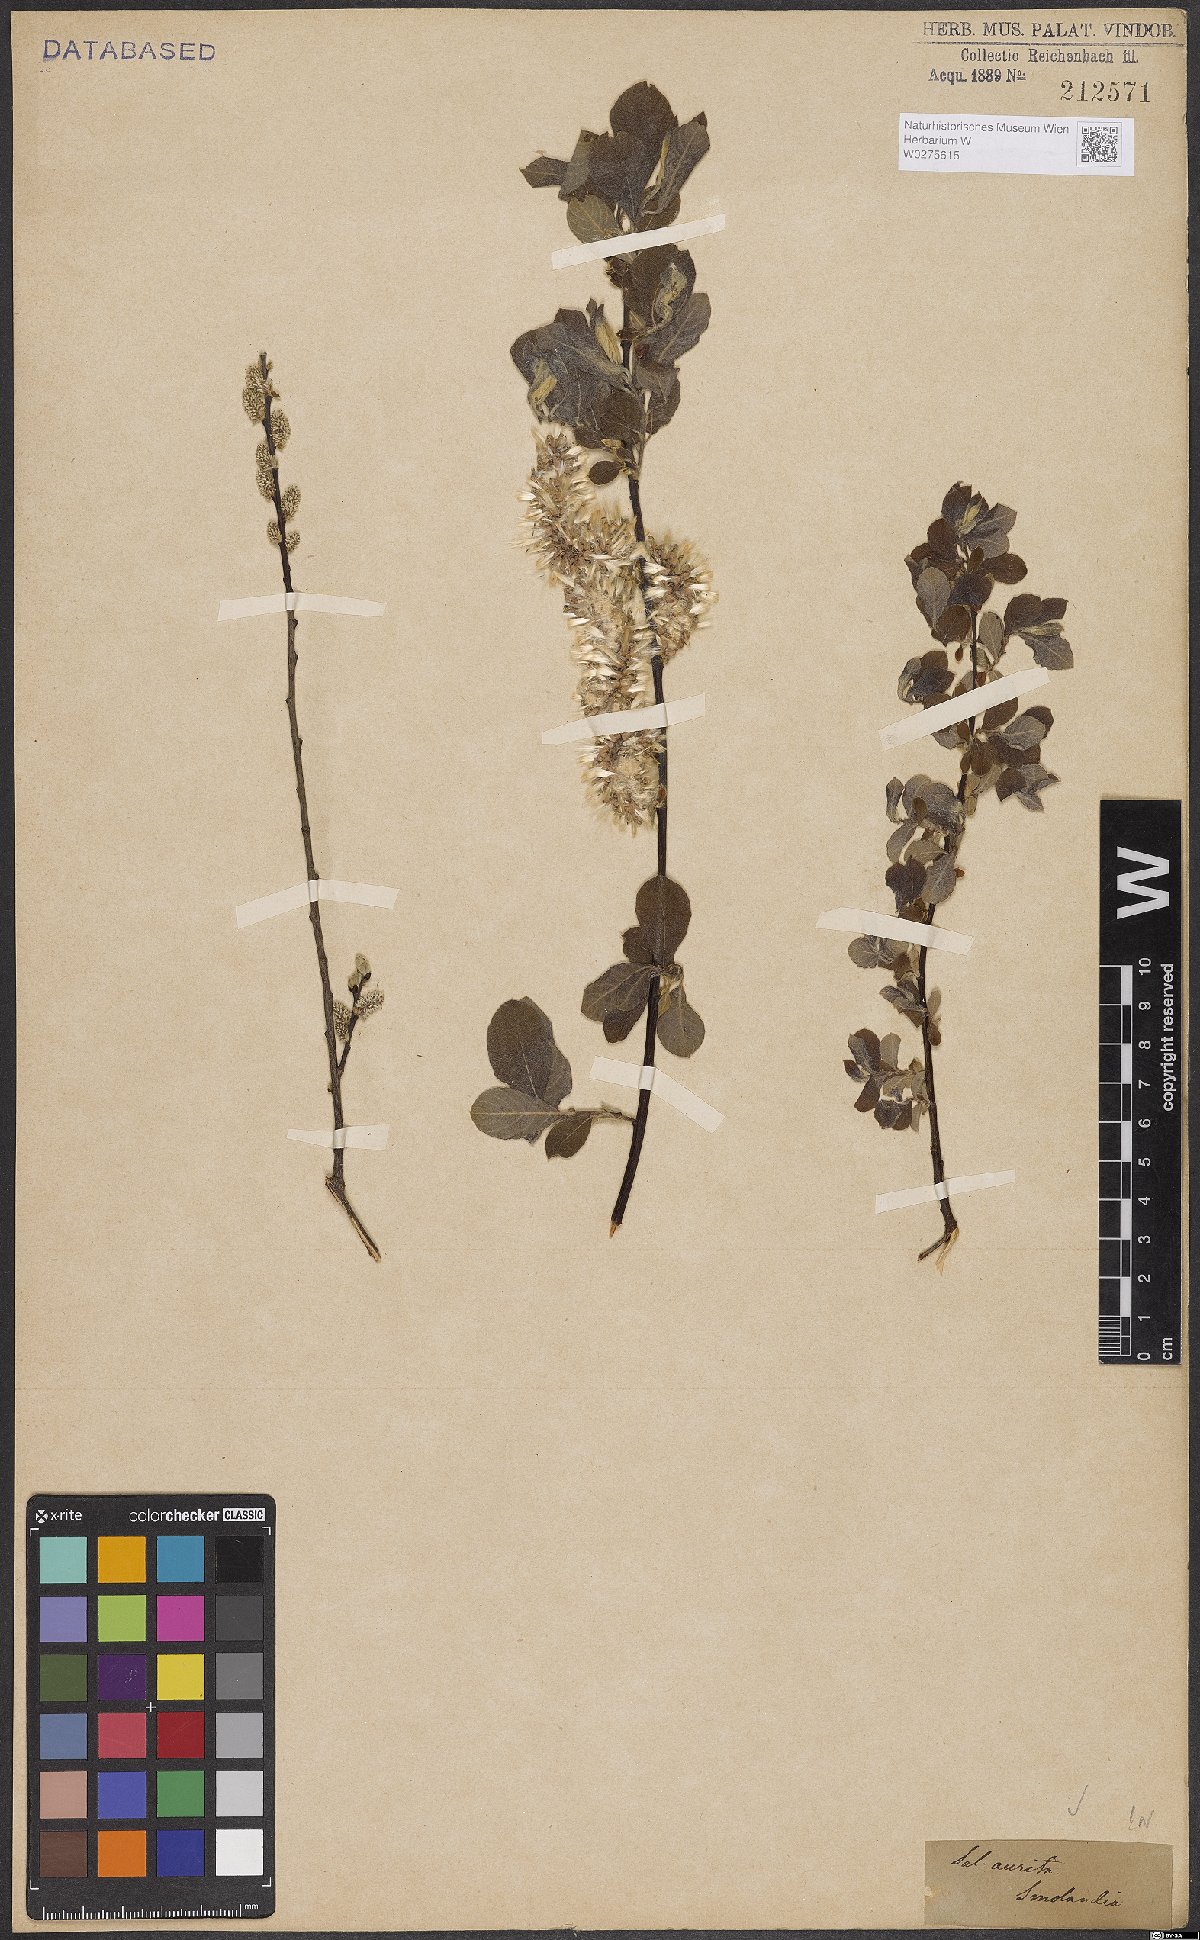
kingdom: Plantae
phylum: Tracheophyta
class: Magnoliopsida
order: Malpighiales
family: Salicaceae
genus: Salix
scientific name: Salix aurita
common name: Eared willow
